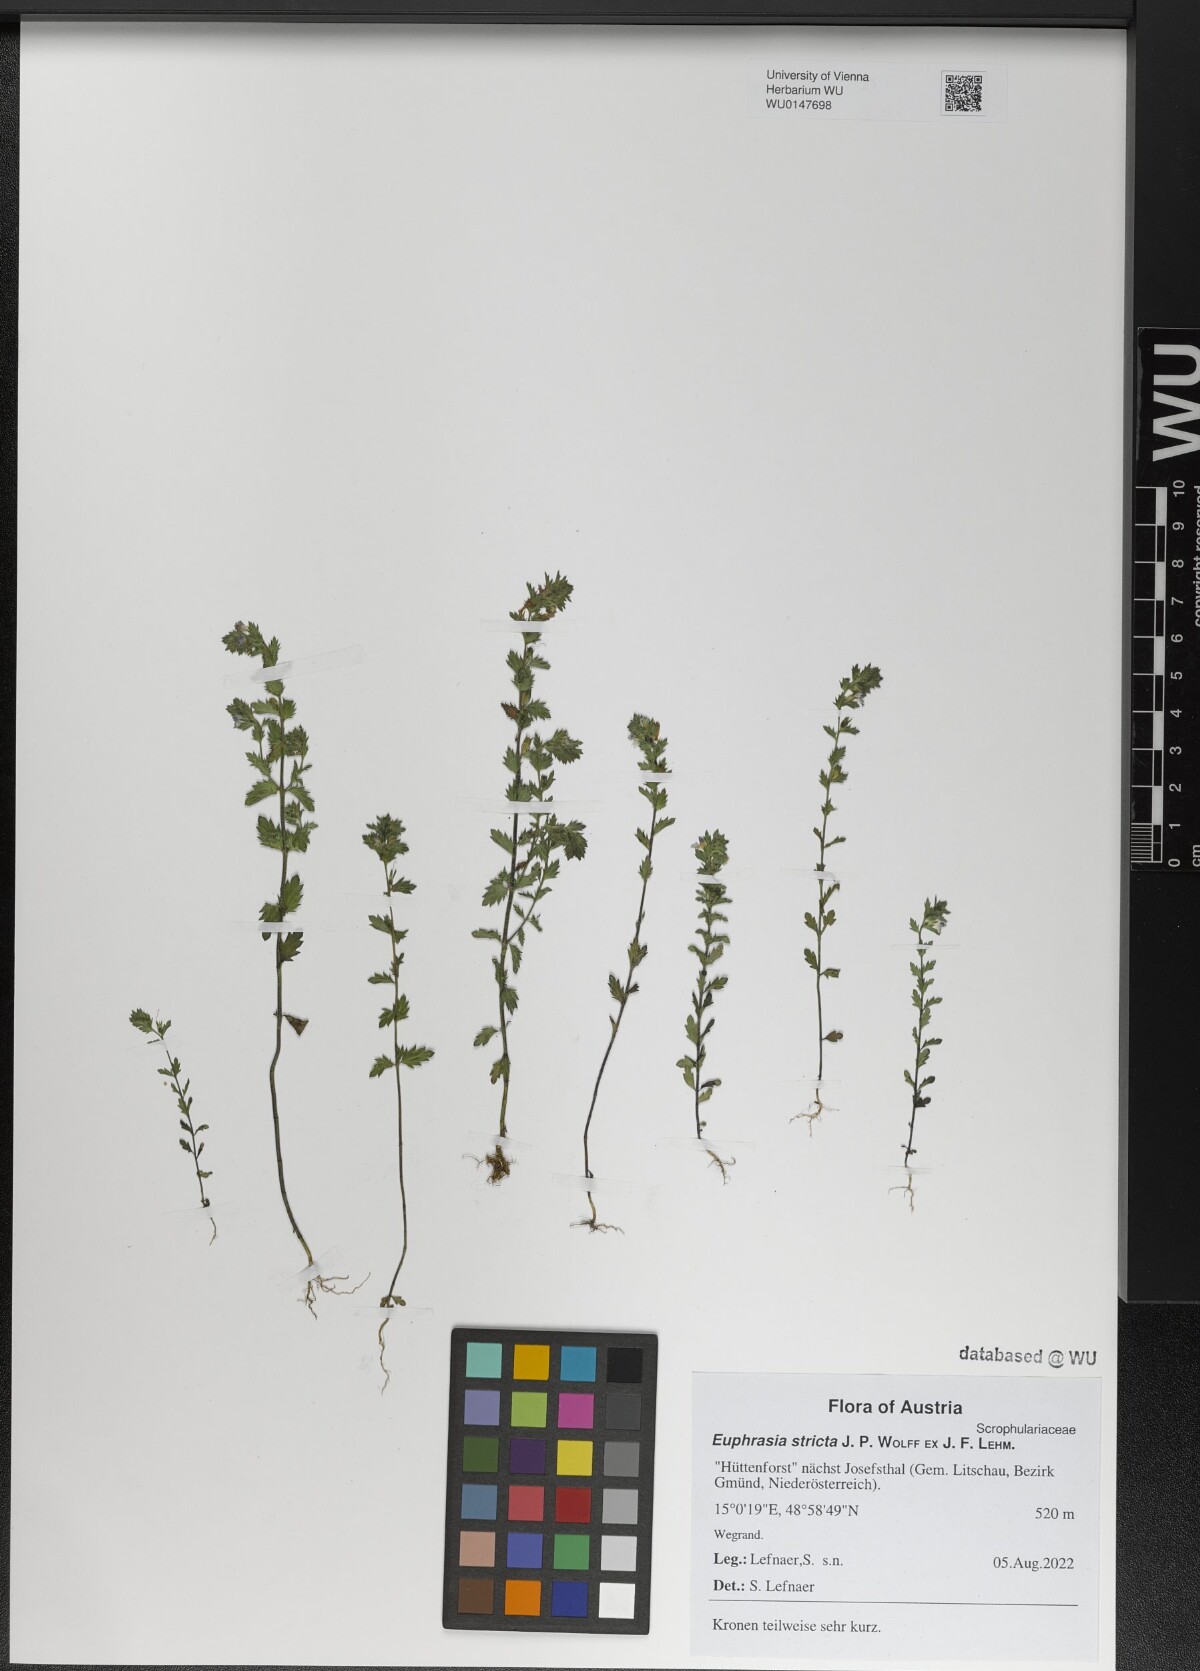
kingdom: Plantae
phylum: Tracheophyta
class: Magnoliopsida
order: Lamiales
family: Orobanchaceae
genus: Euphrasia
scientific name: Euphrasia stricta
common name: Drug eyebright
